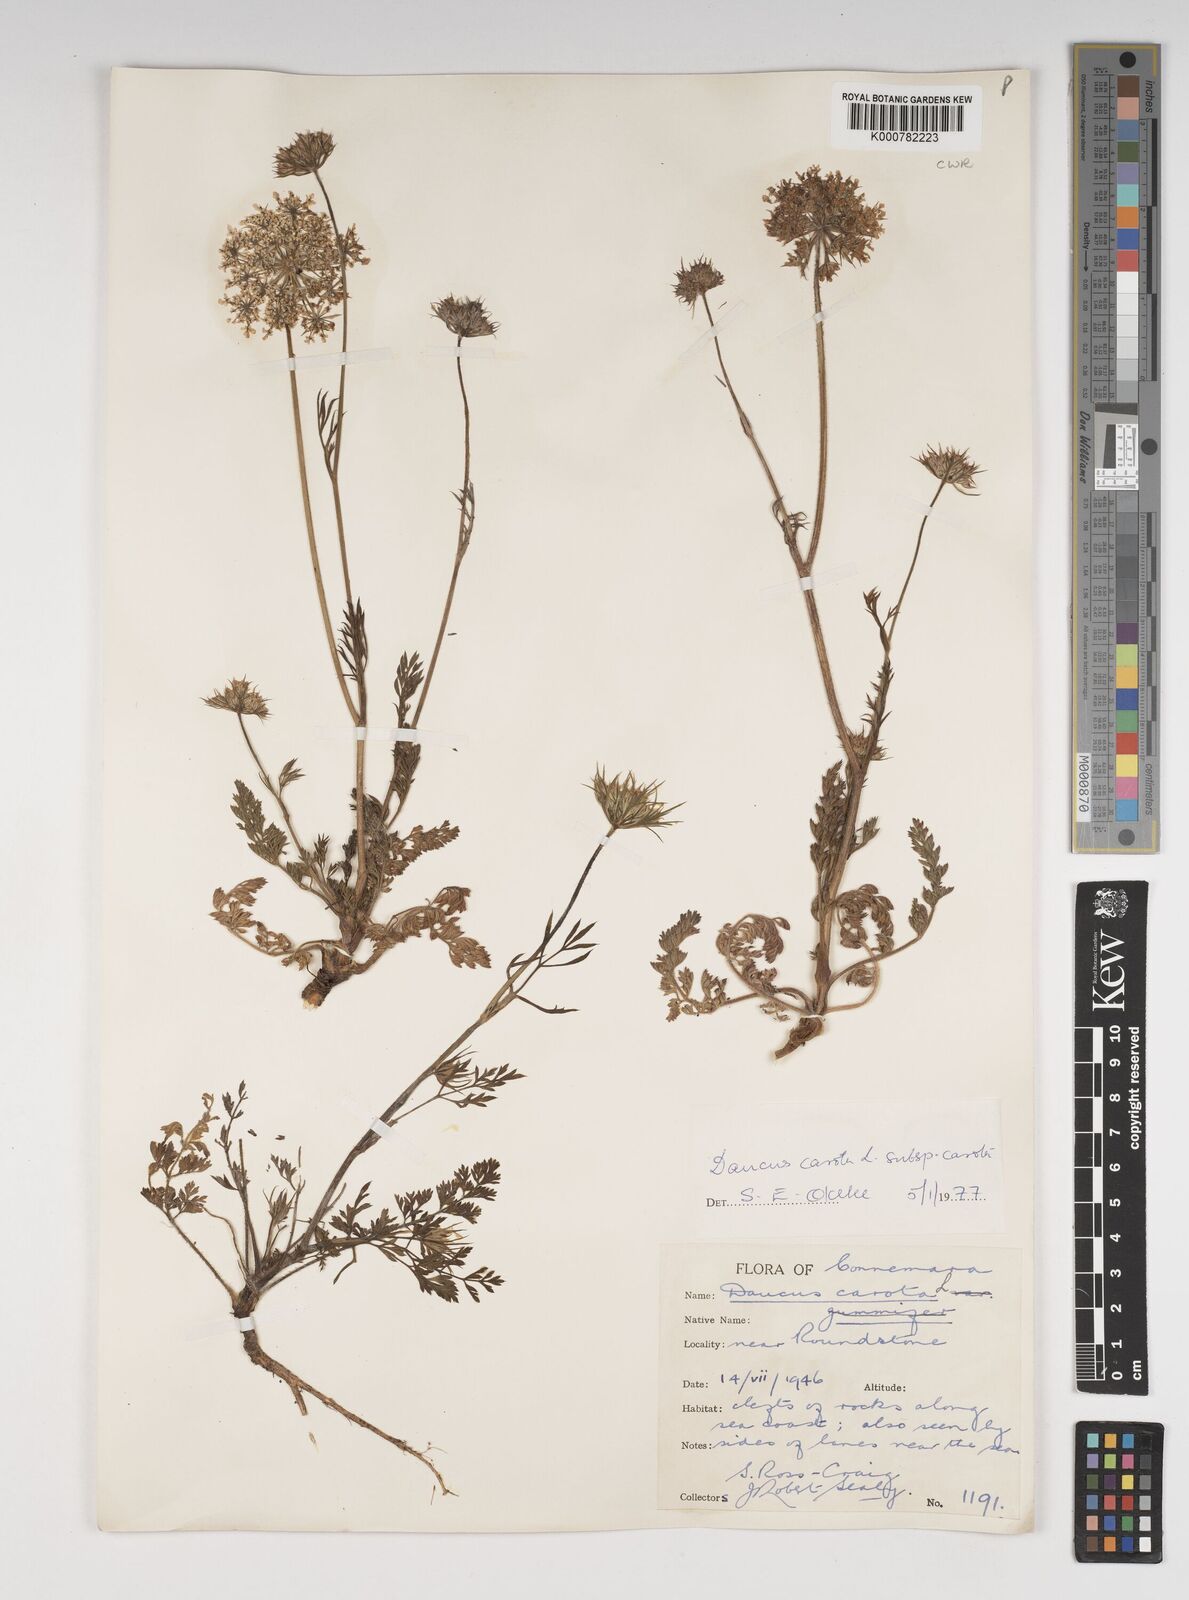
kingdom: Plantae
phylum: Tracheophyta
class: Magnoliopsida
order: Apiales
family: Apiaceae
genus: Daucus
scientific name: Daucus carota
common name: Wild carrot
